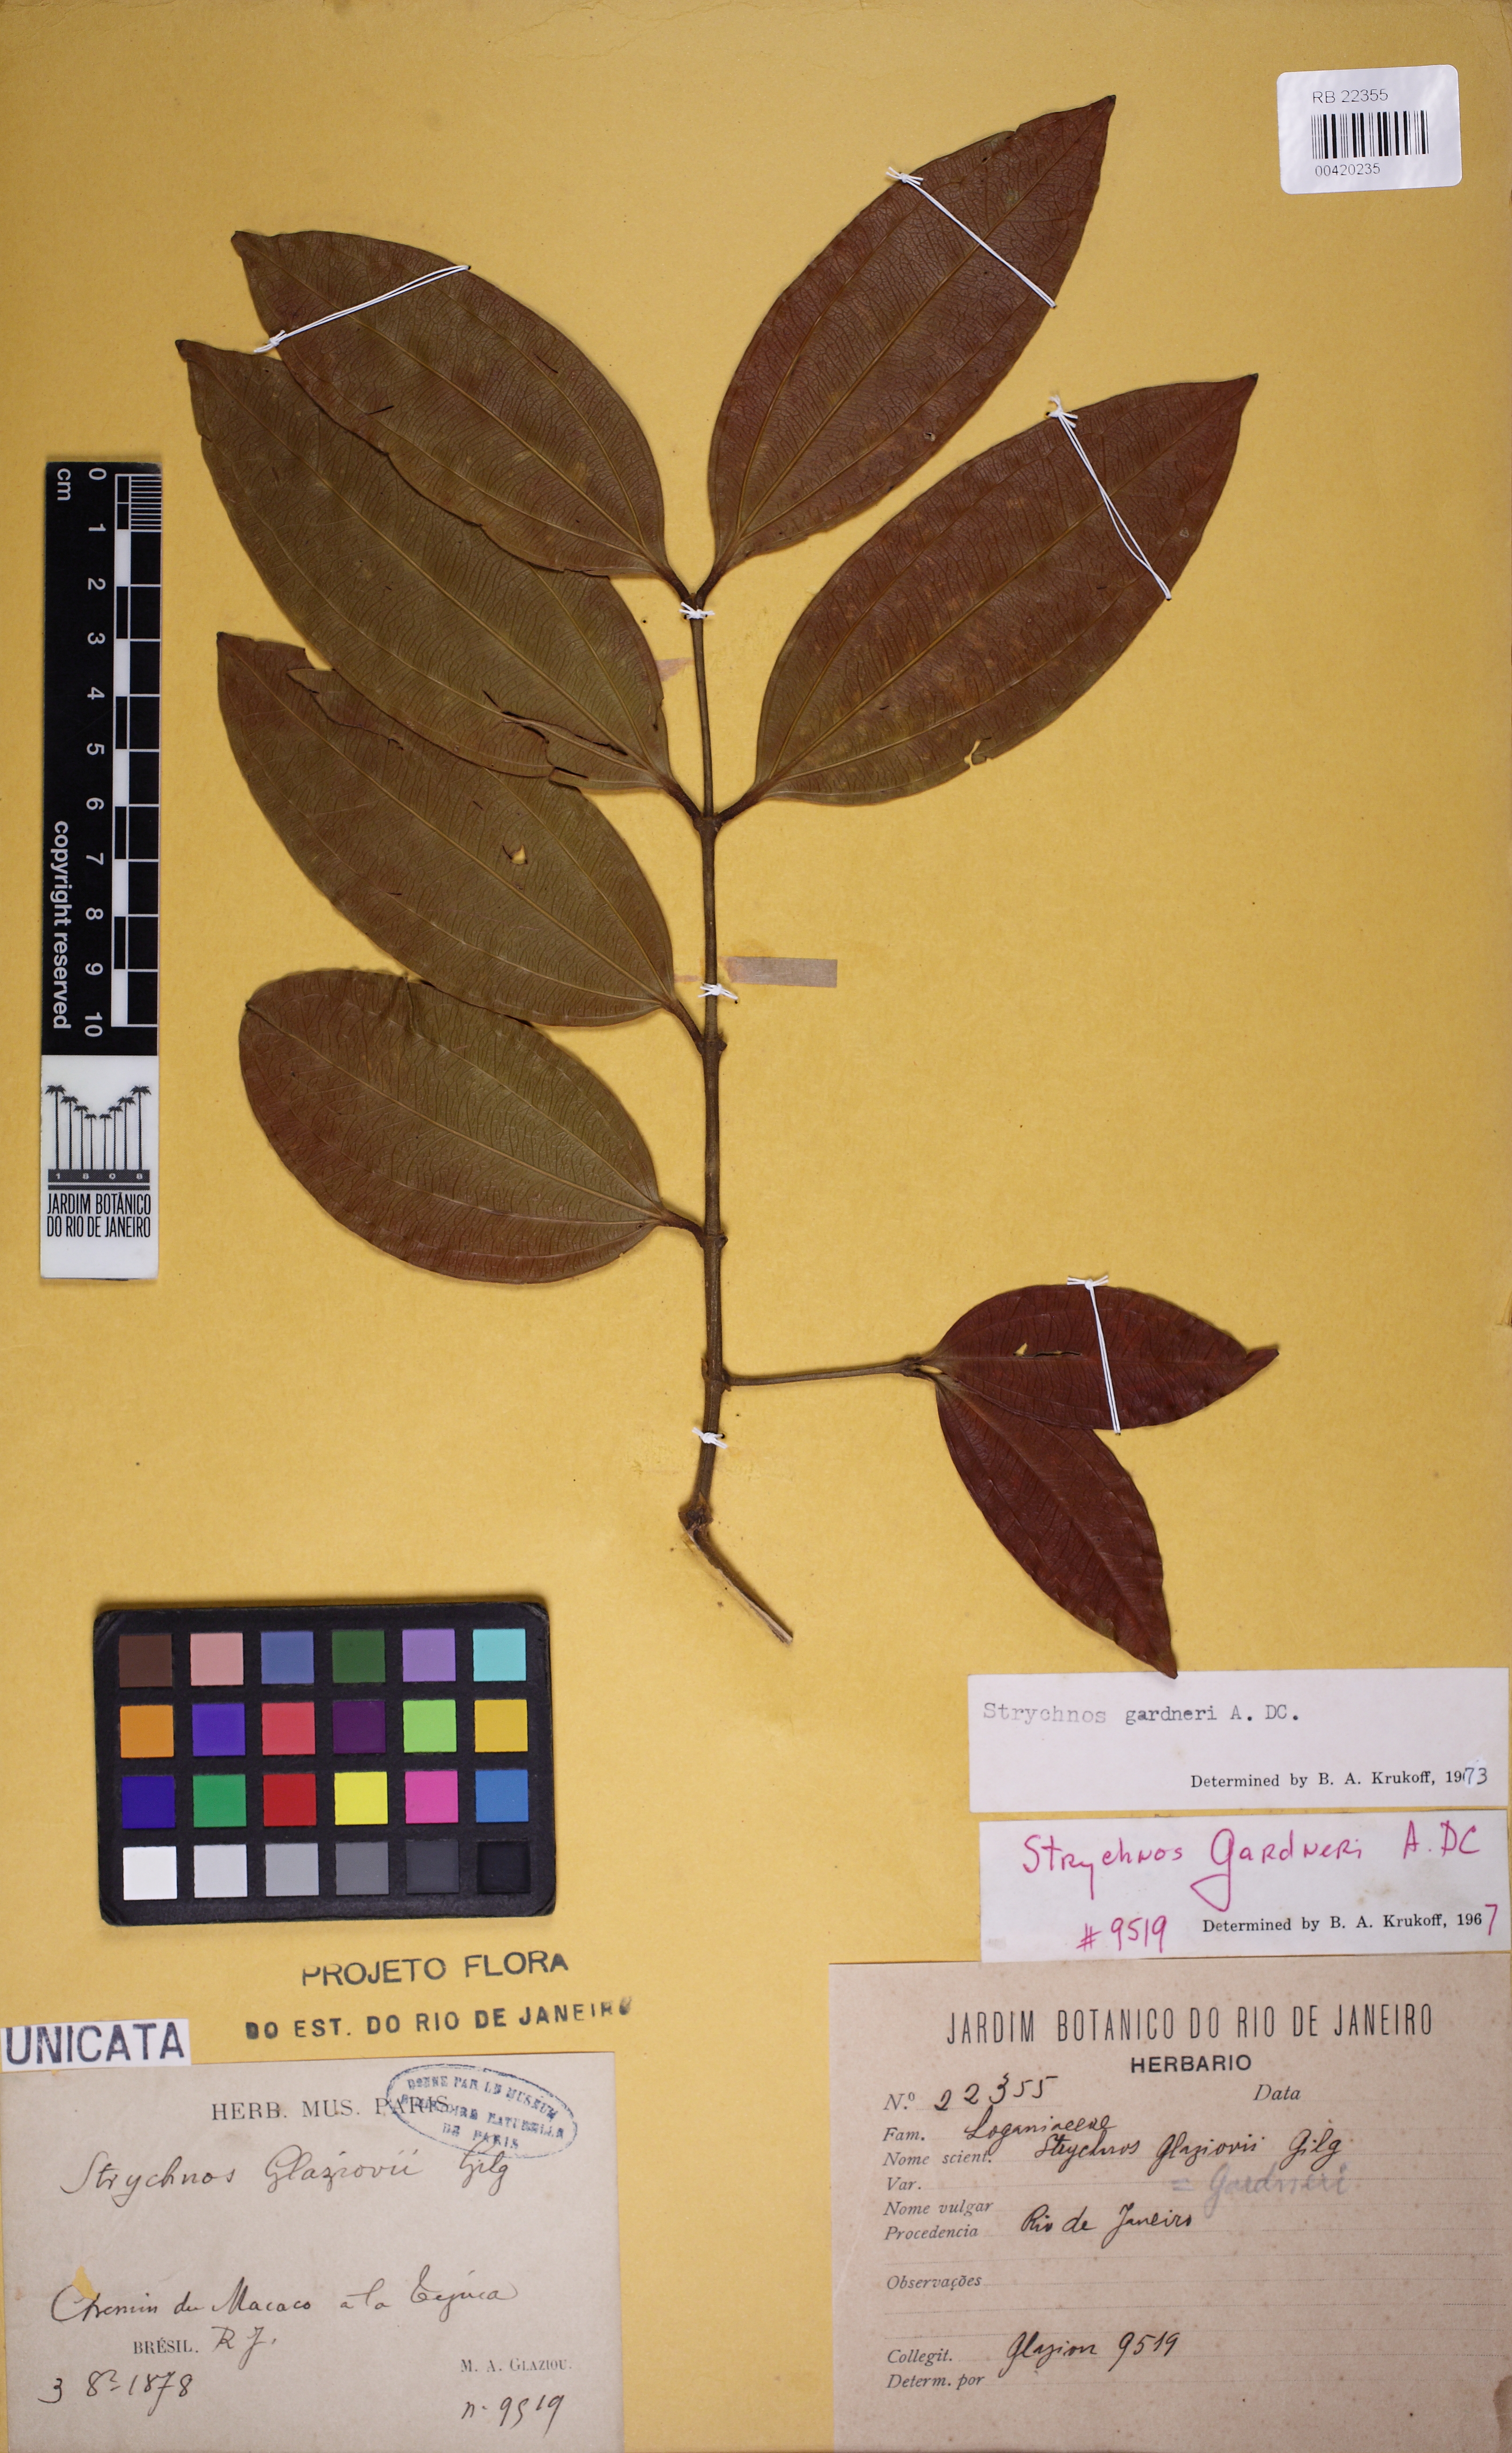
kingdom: Plantae
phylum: Tracheophyta
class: Magnoliopsida
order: Gentianales
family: Loganiaceae
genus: Strychnos
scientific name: Strychnos gardneri
